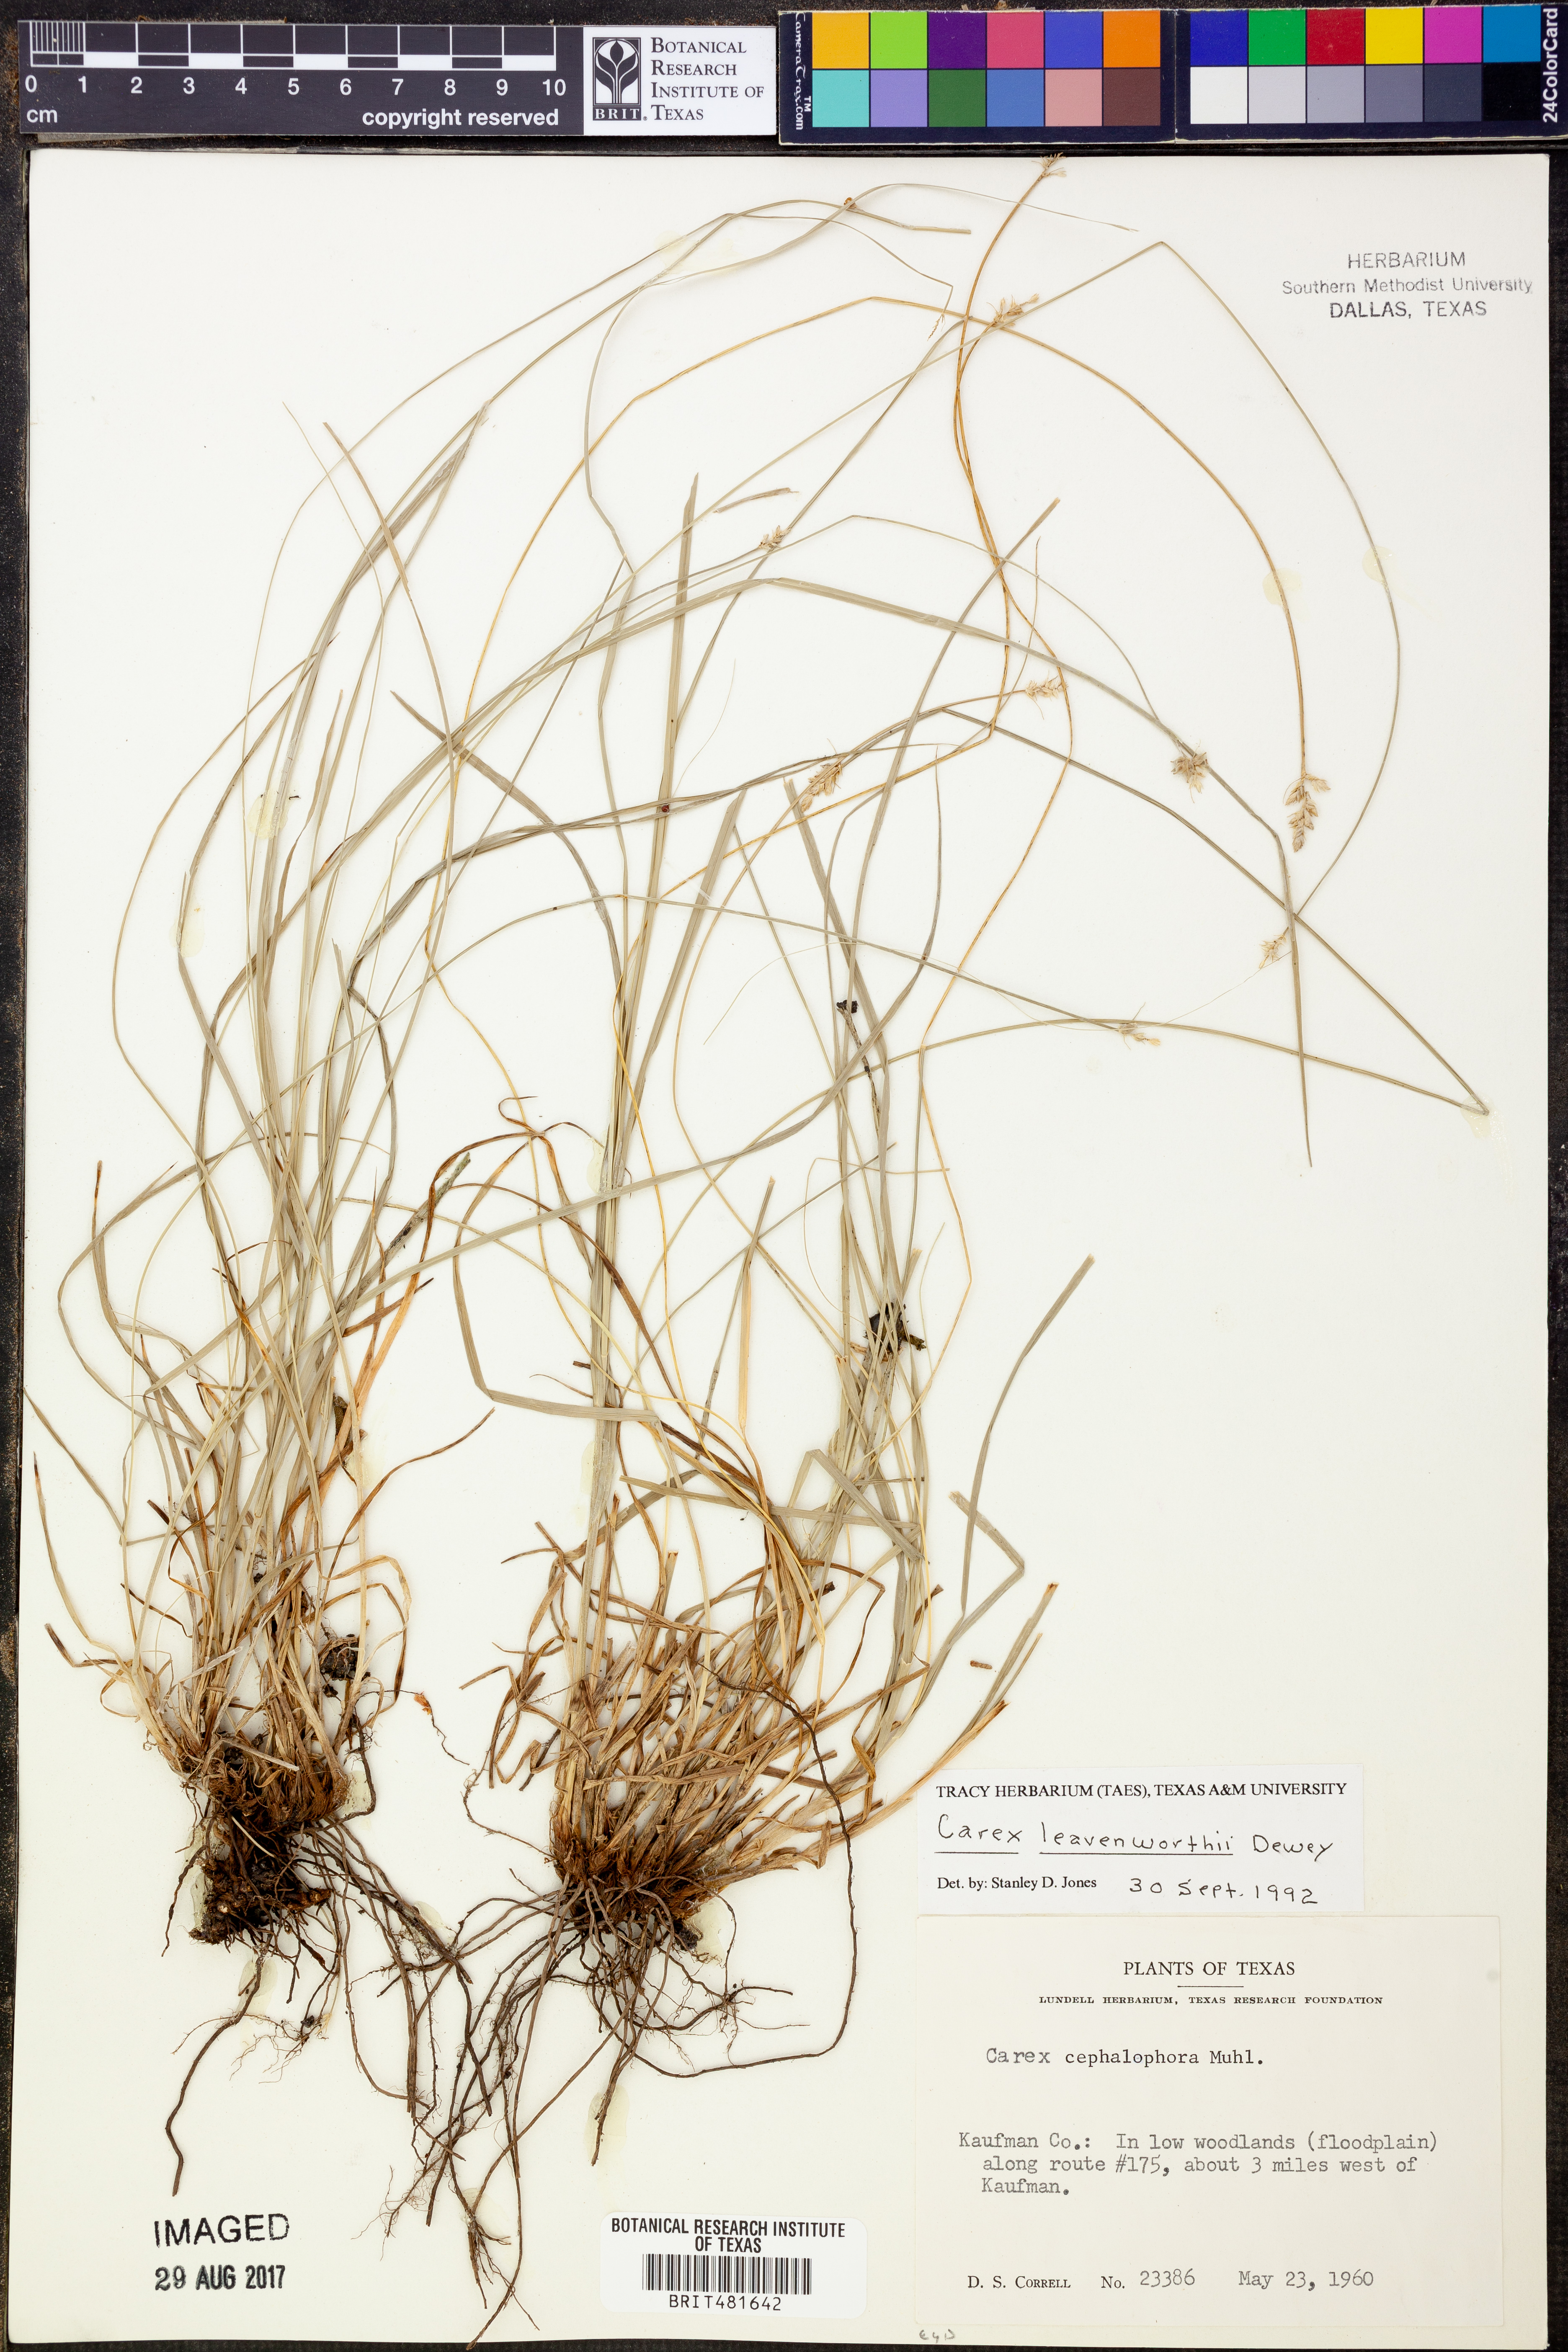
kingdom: Plantae
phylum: Tracheophyta
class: Liliopsida
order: Poales
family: Cyperaceae
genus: Carex
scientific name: Carex leavenworthii
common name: Leavenworth's bracted sedge
